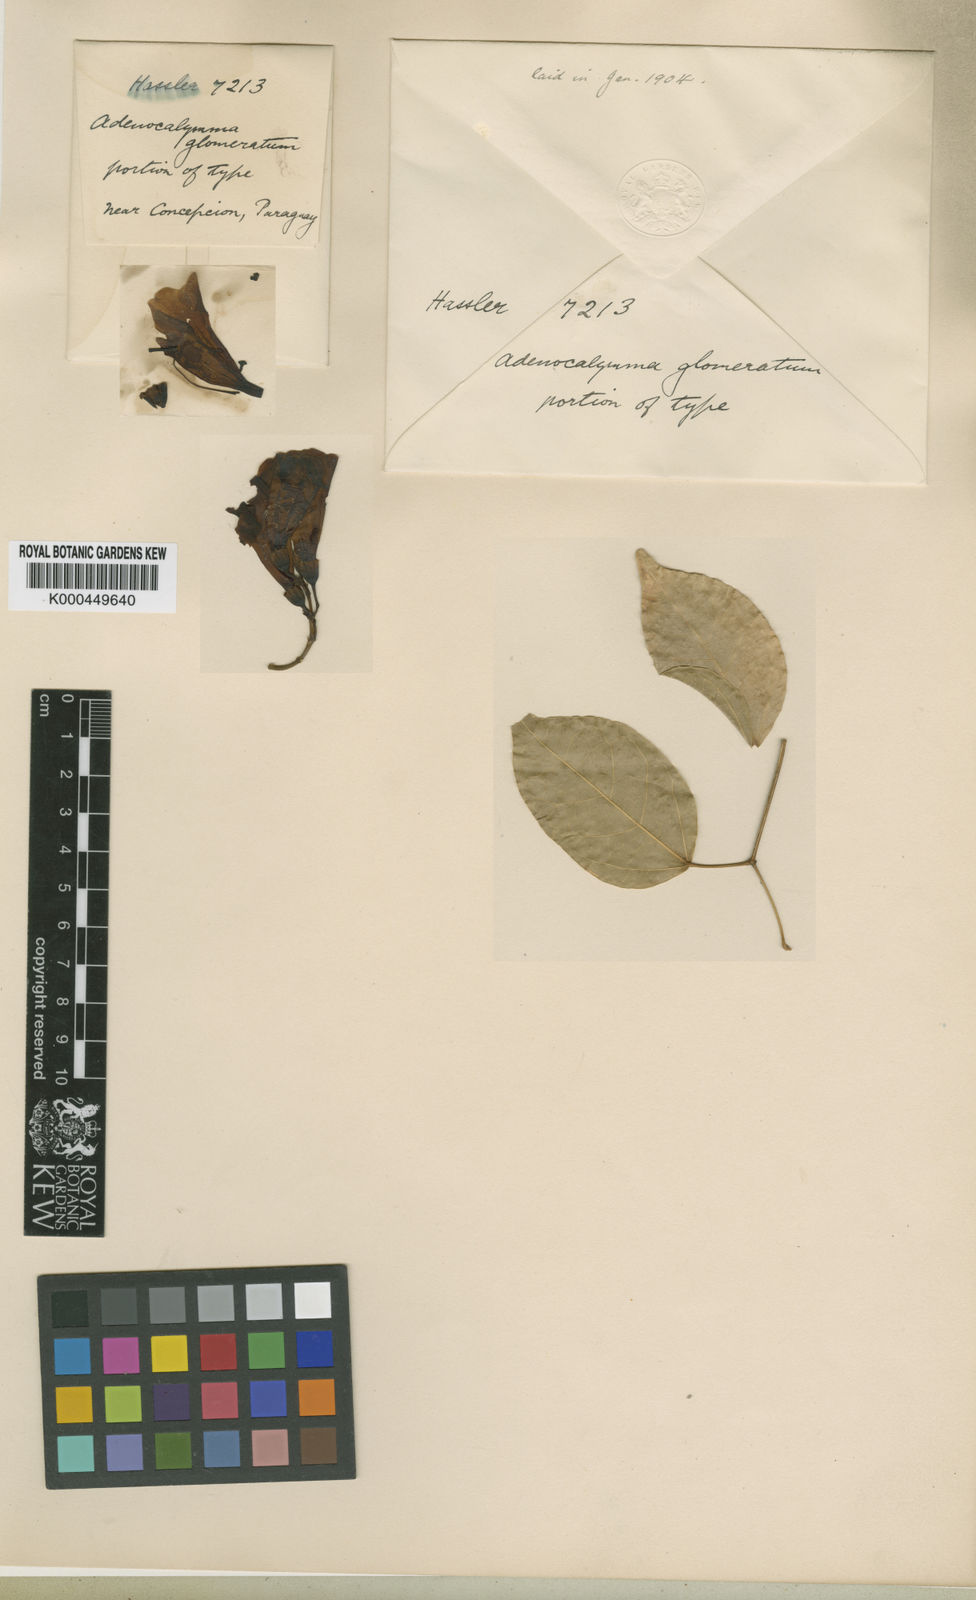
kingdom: Plantae
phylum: Tracheophyta
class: Magnoliopsida
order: Lamiales
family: Bignoniaceae
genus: Mansoa
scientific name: Mansoa difficilis
